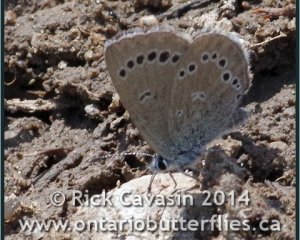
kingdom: Animalia
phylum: Arthropoda
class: Insecta
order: Lepidoptera
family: Lycaenidae
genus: Glaucopsyche
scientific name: Glaucopsyche lygdamus
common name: Silvery Blue
